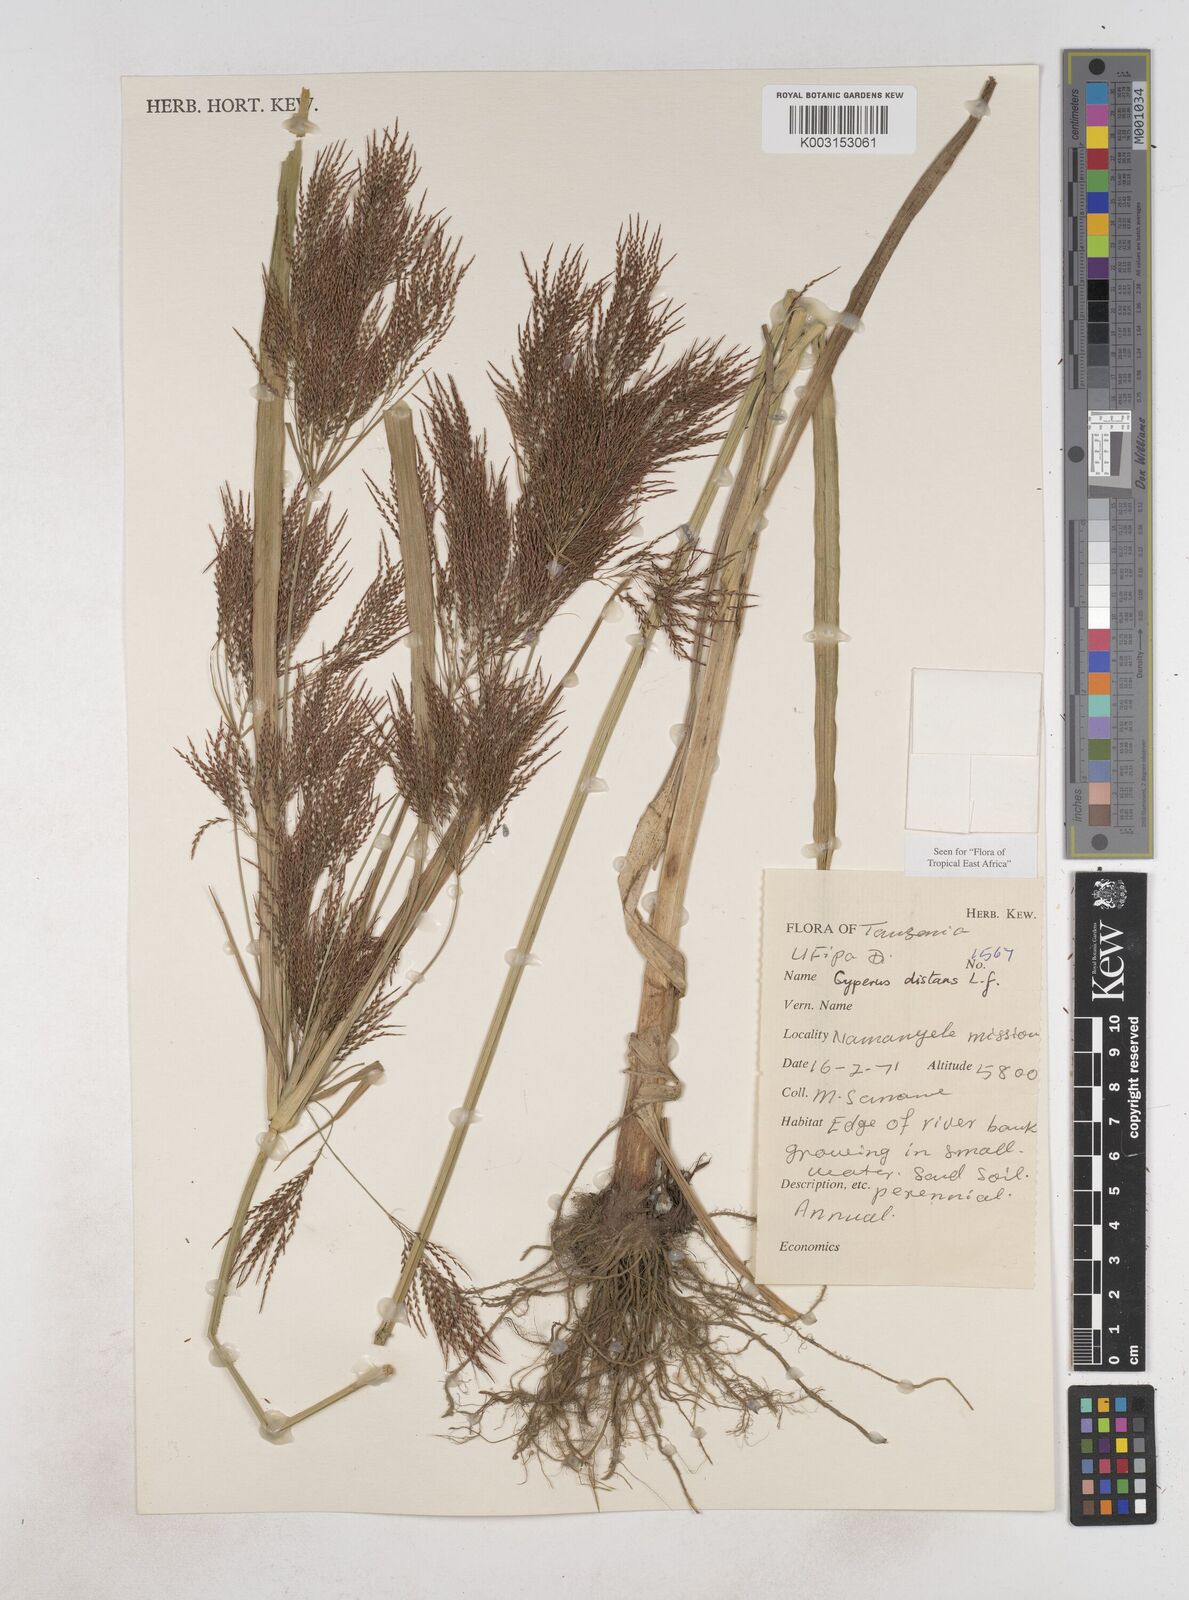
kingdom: Plantae
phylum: Tracheophyta
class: Liliopsida
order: Poales
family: Cyperaceae
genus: Cyperus
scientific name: Cyperus distans
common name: Slender cyperus
